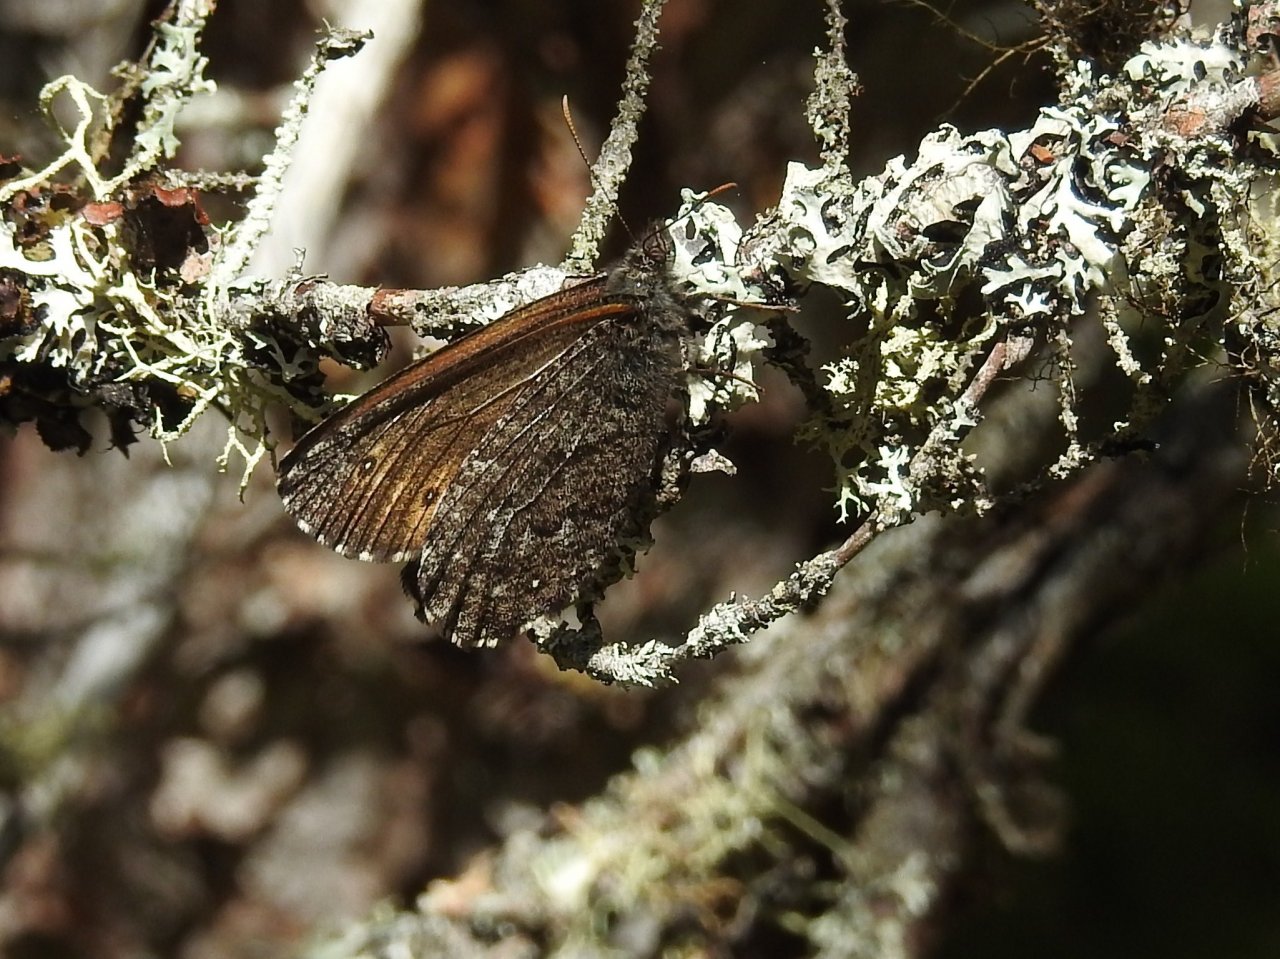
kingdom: Animalia
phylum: Arthropoda
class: Insecta
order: Lepidoptera
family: Nymphalidae
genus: Oeneis
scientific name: Oeneis jutta
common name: Jutta Arctic
